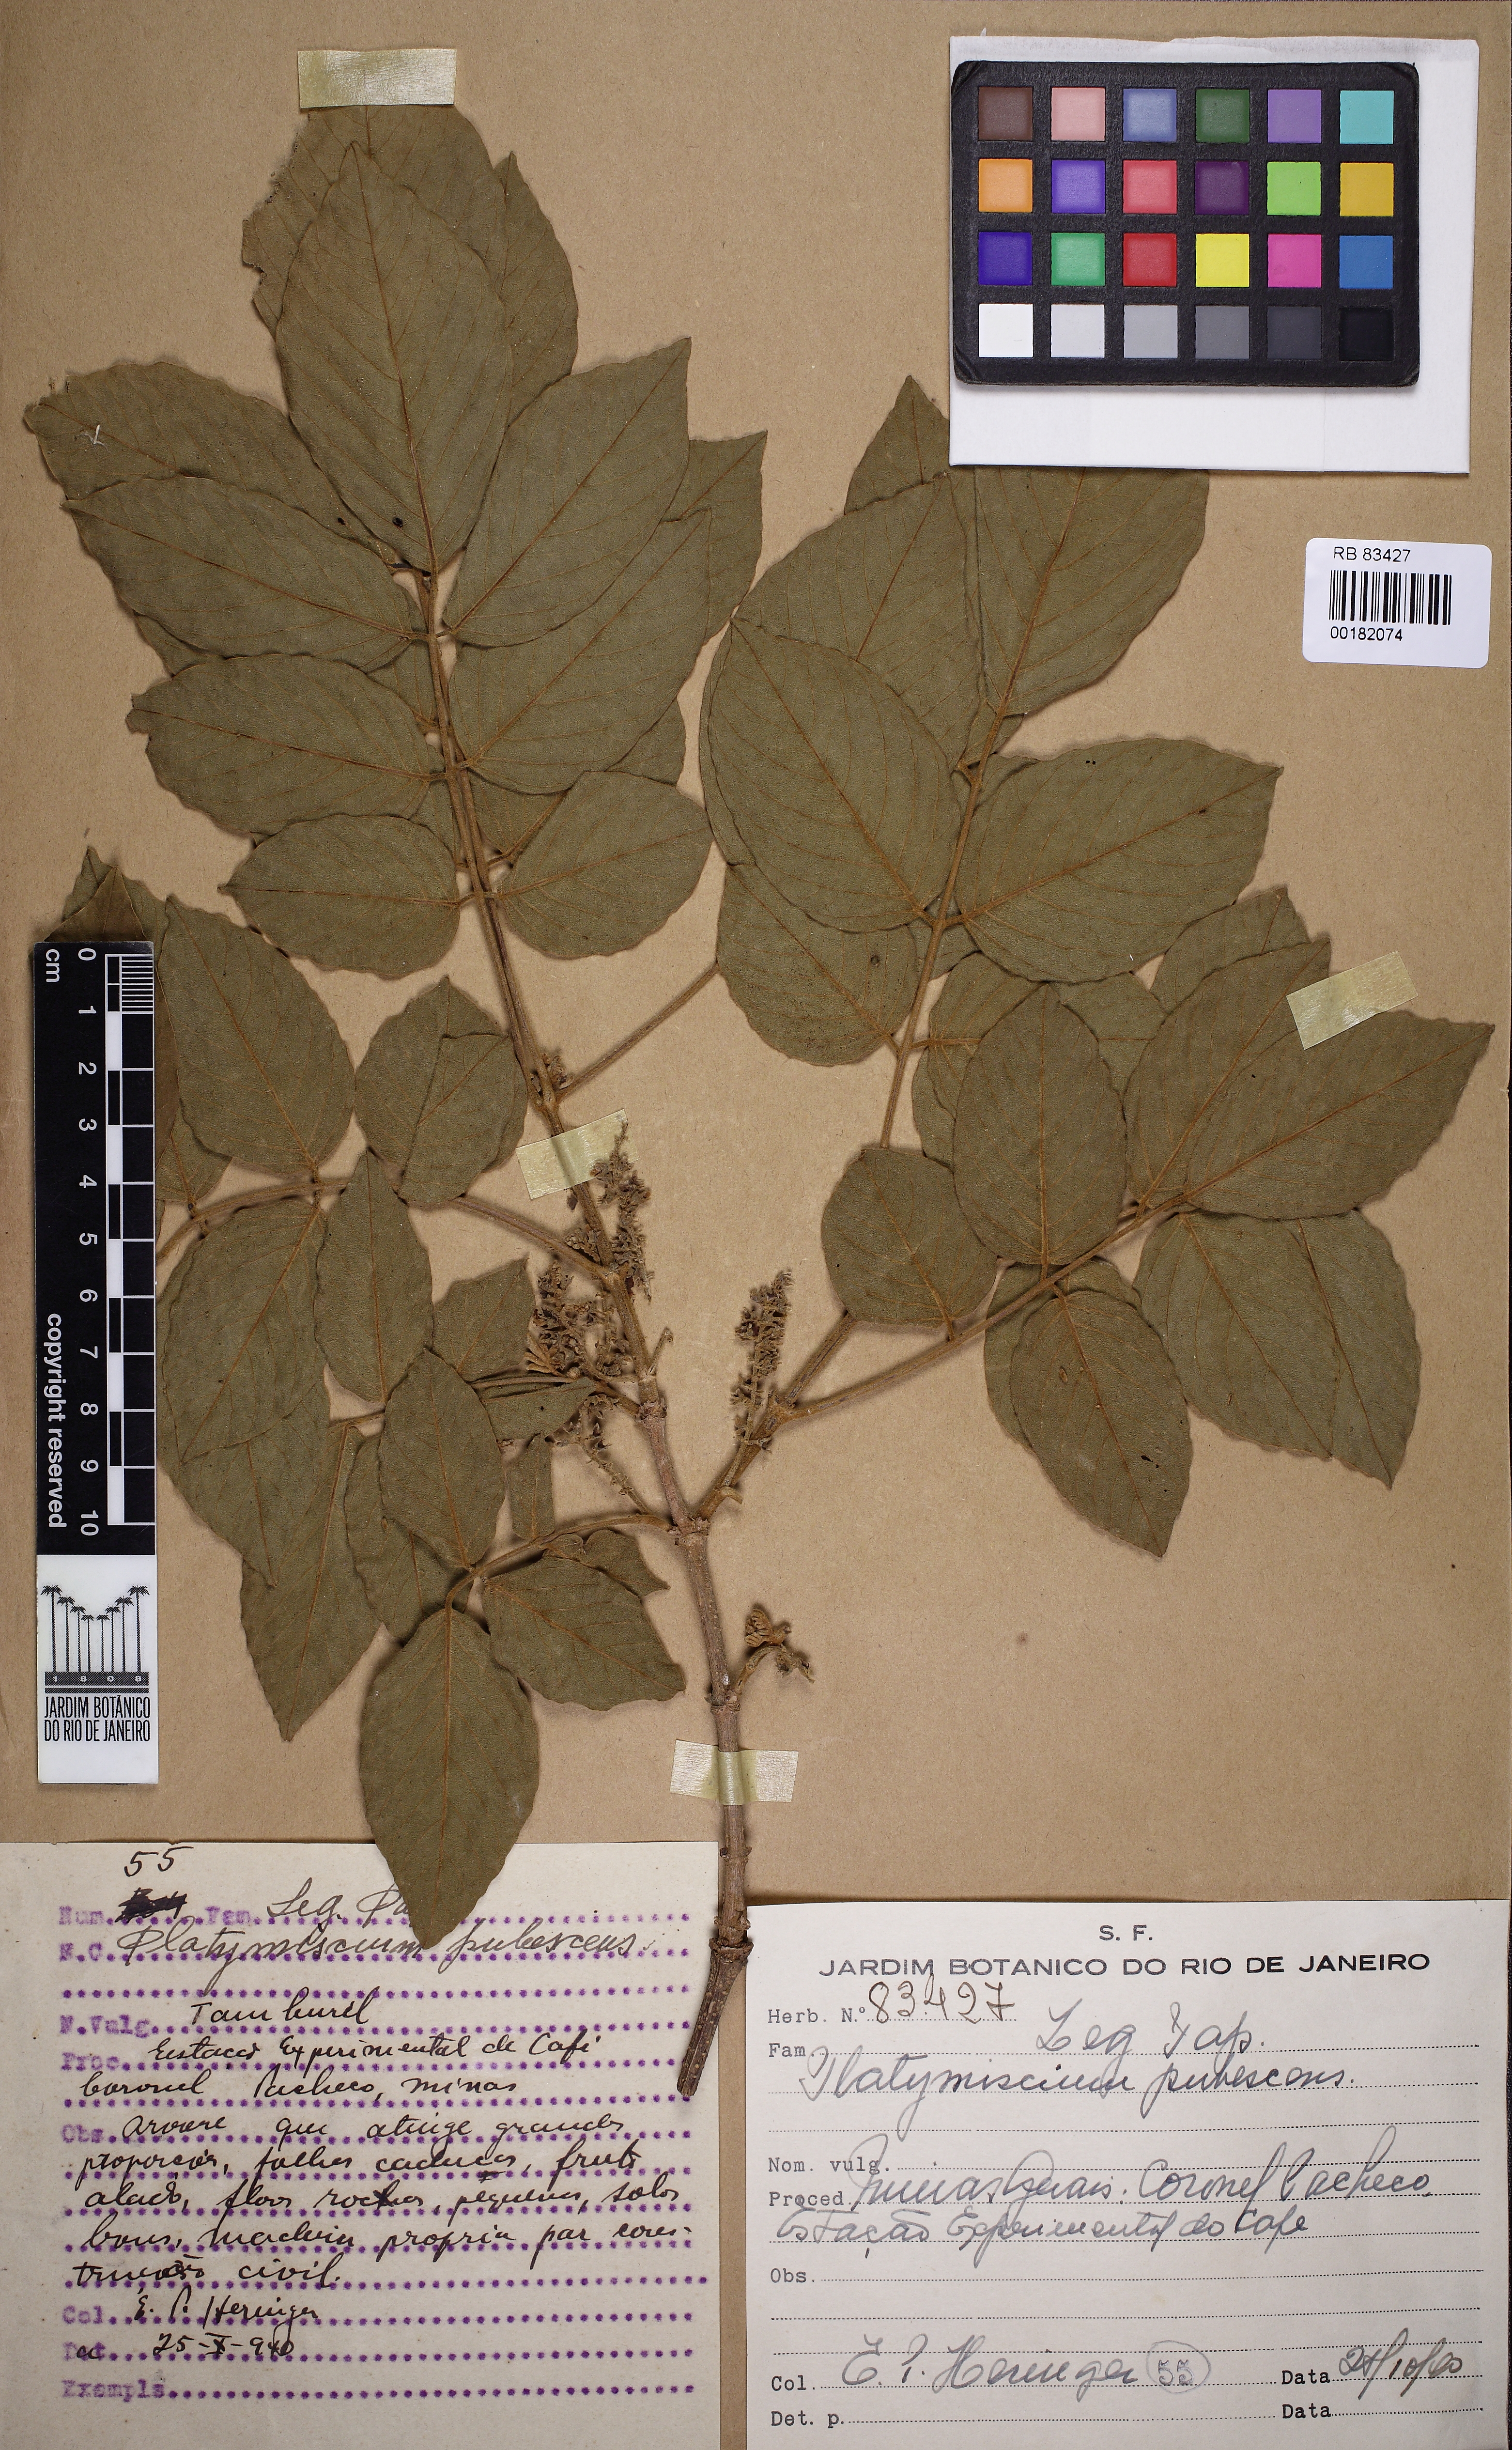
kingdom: Plantae
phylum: Tracheophyta
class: Magnoliopsida
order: Fabales
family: Fabaceae
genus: Platymiscium
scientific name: Platymiscium pubescens
